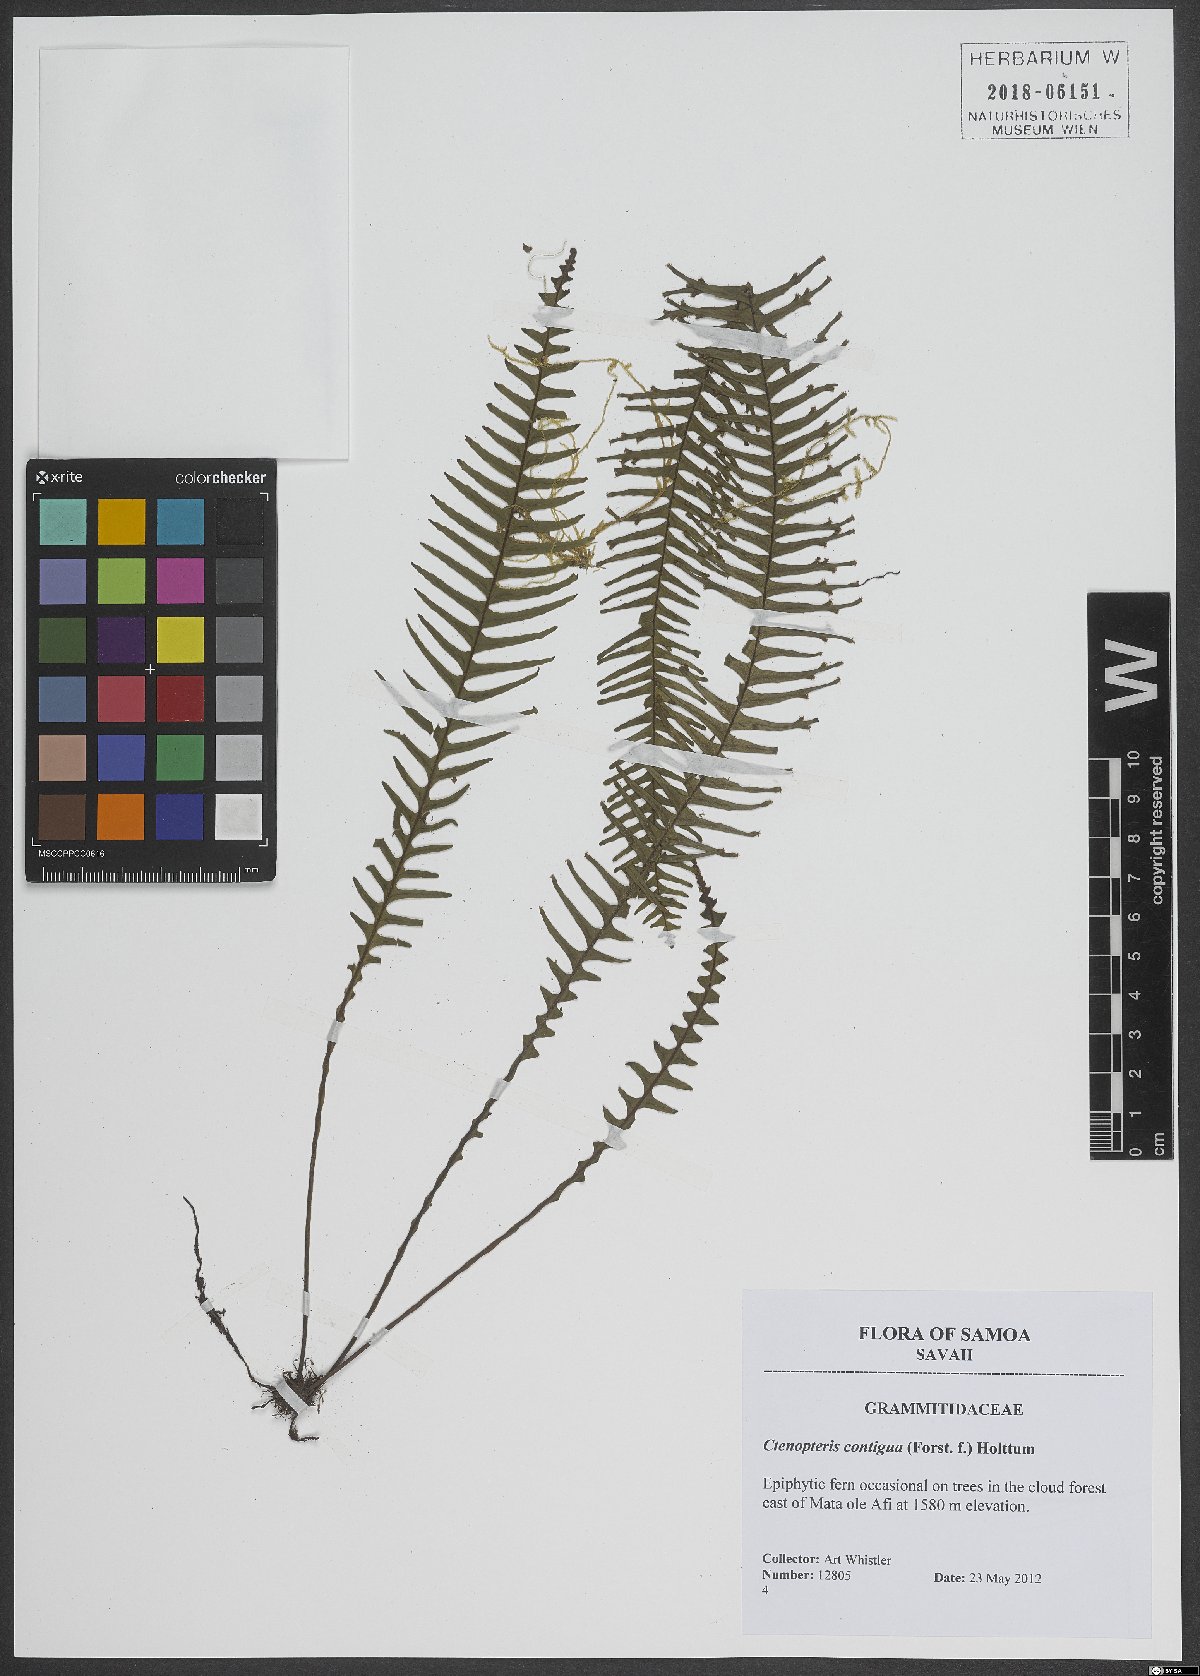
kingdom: Plantae
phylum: Tracheophyta
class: Polypodiopsida
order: Polypodiales
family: Polypodiaceae
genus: Prosaptia
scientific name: Prosaptia contigua
